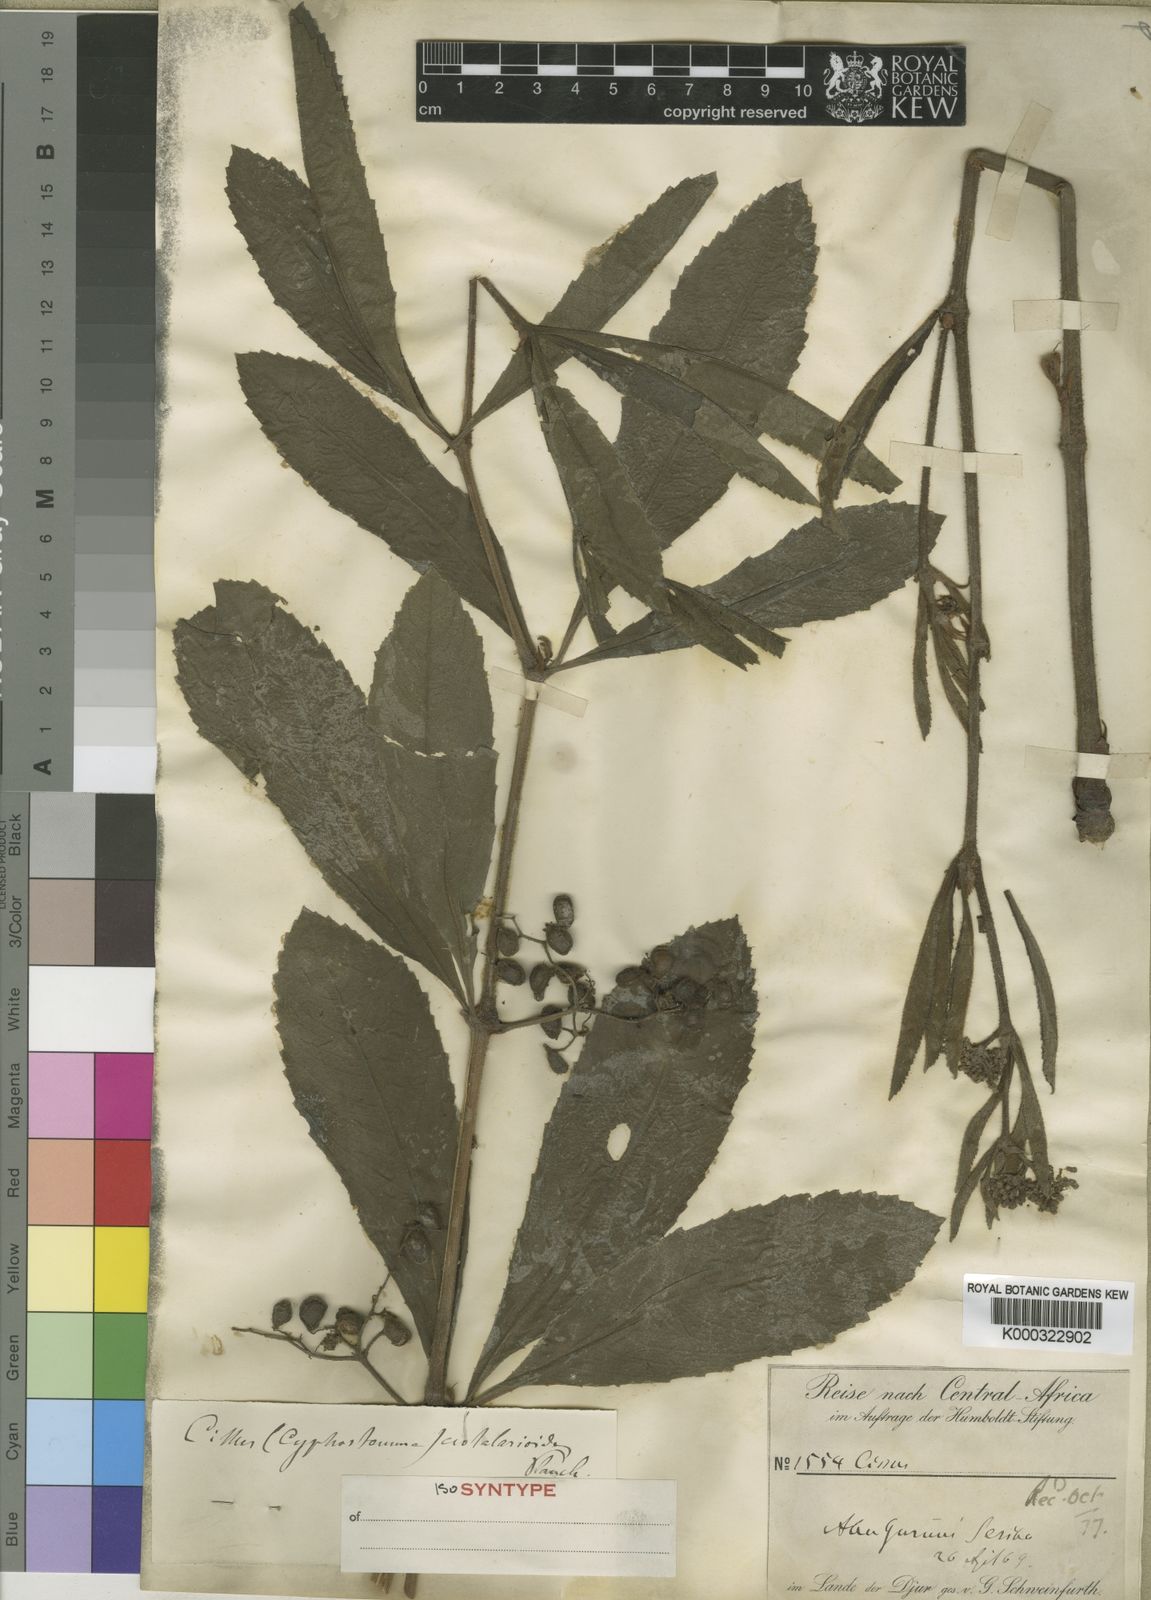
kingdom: Plantae
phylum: Tracheophyta
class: Magnoliopsida
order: Vitales
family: Vitaceae
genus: Cyphostemma
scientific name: Cyphostemma
